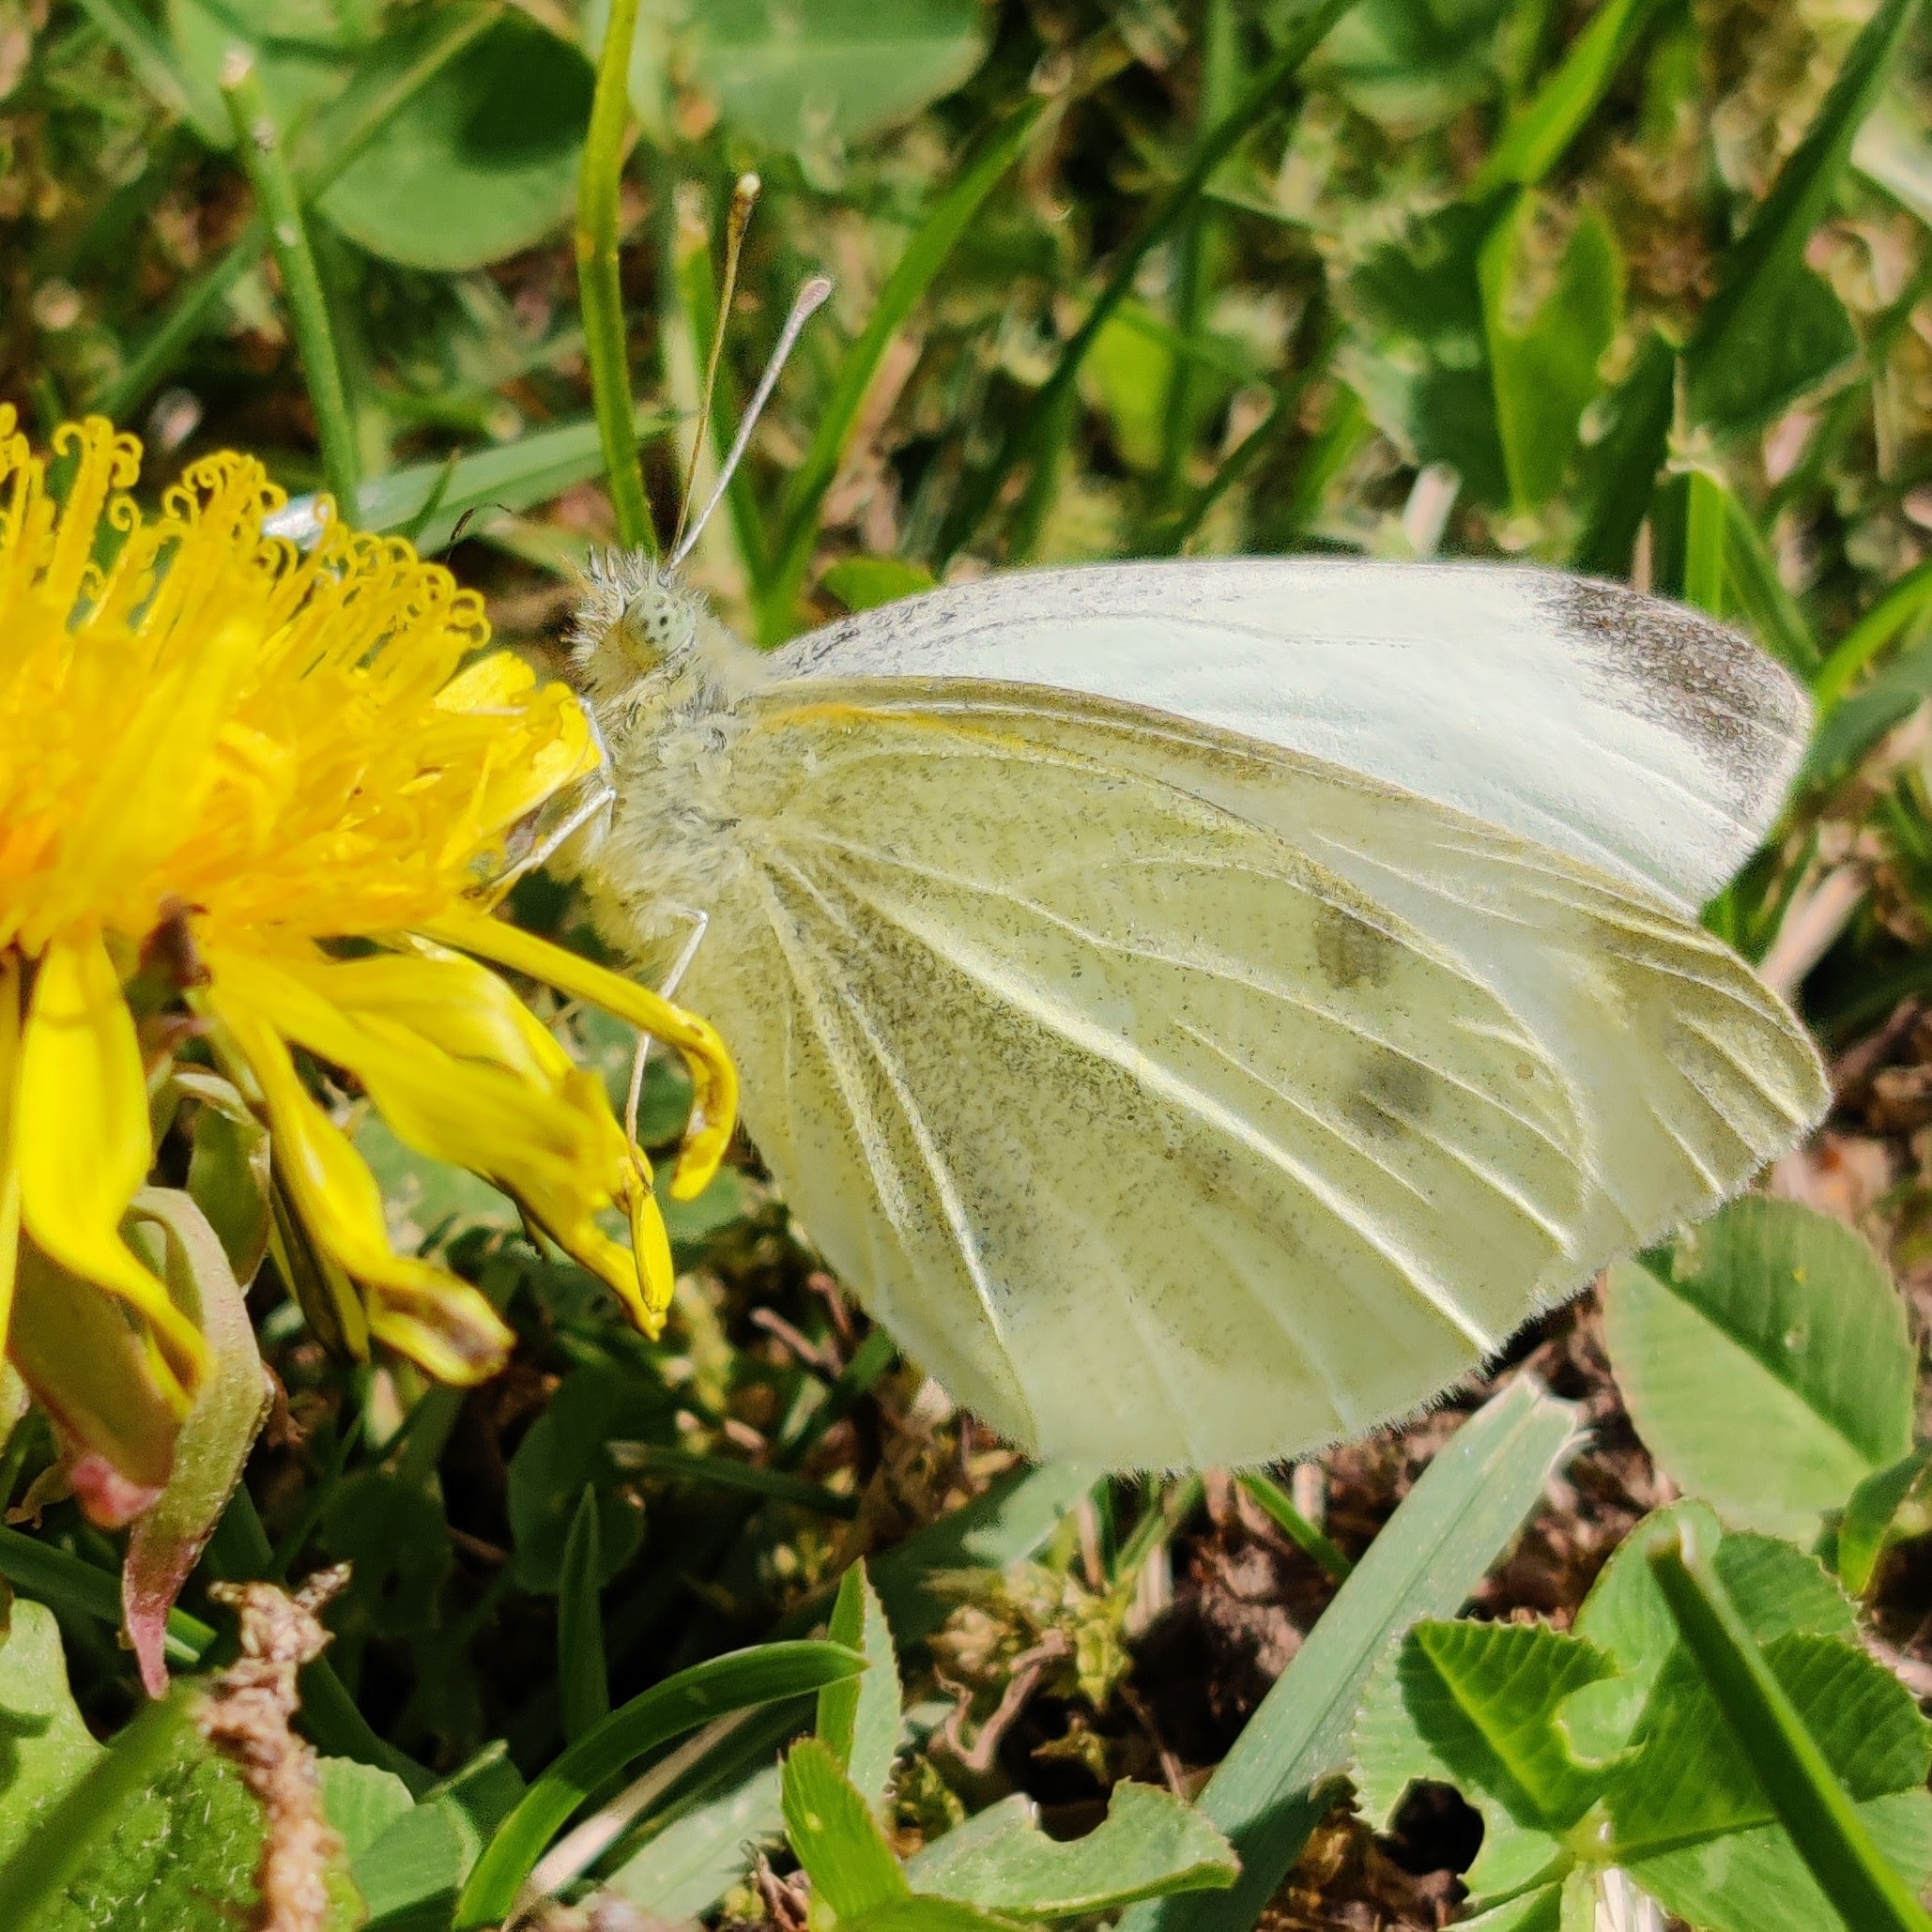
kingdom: Animalia
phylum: Arthropoda
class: Insecta
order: Lepidoptera
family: Pieridae
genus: Pieris
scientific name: Pieris rapae
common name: Lille kålsommerfugl
